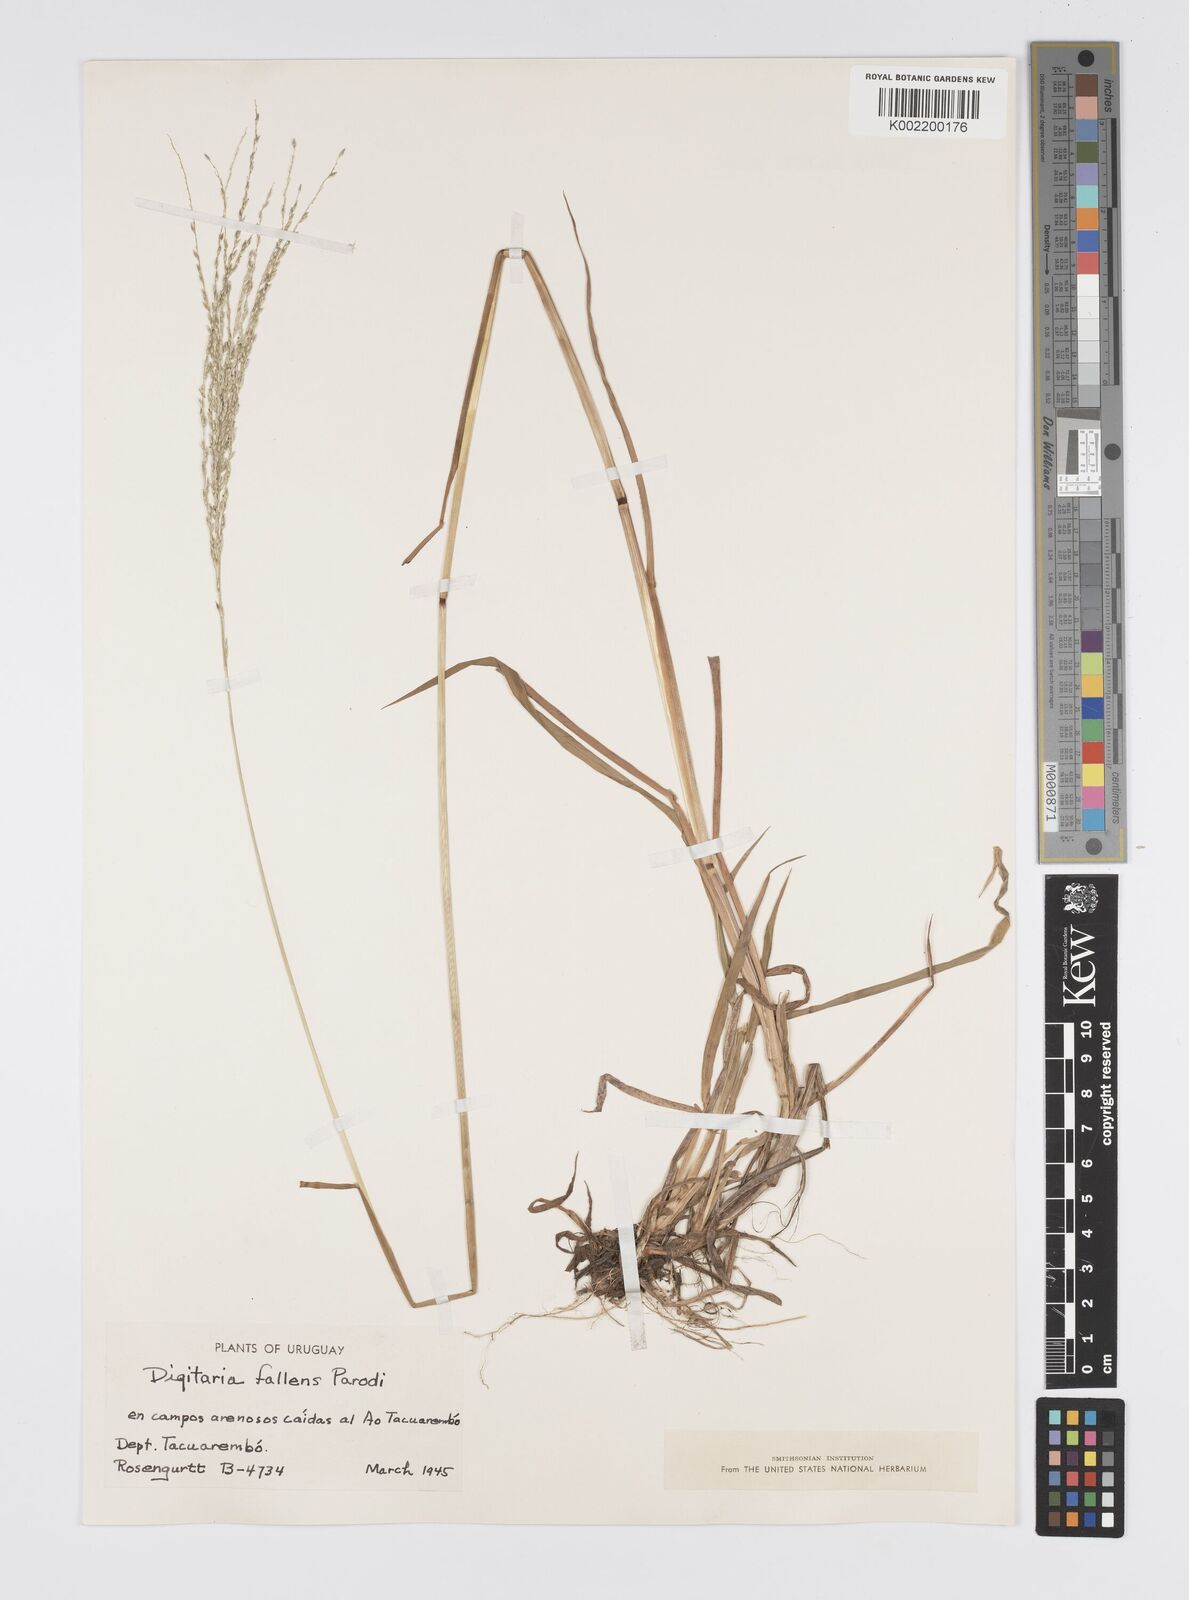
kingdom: Plantae
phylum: Tracheophyta
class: Liliopsida
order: Poales
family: Poaceae
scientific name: Poaceae
